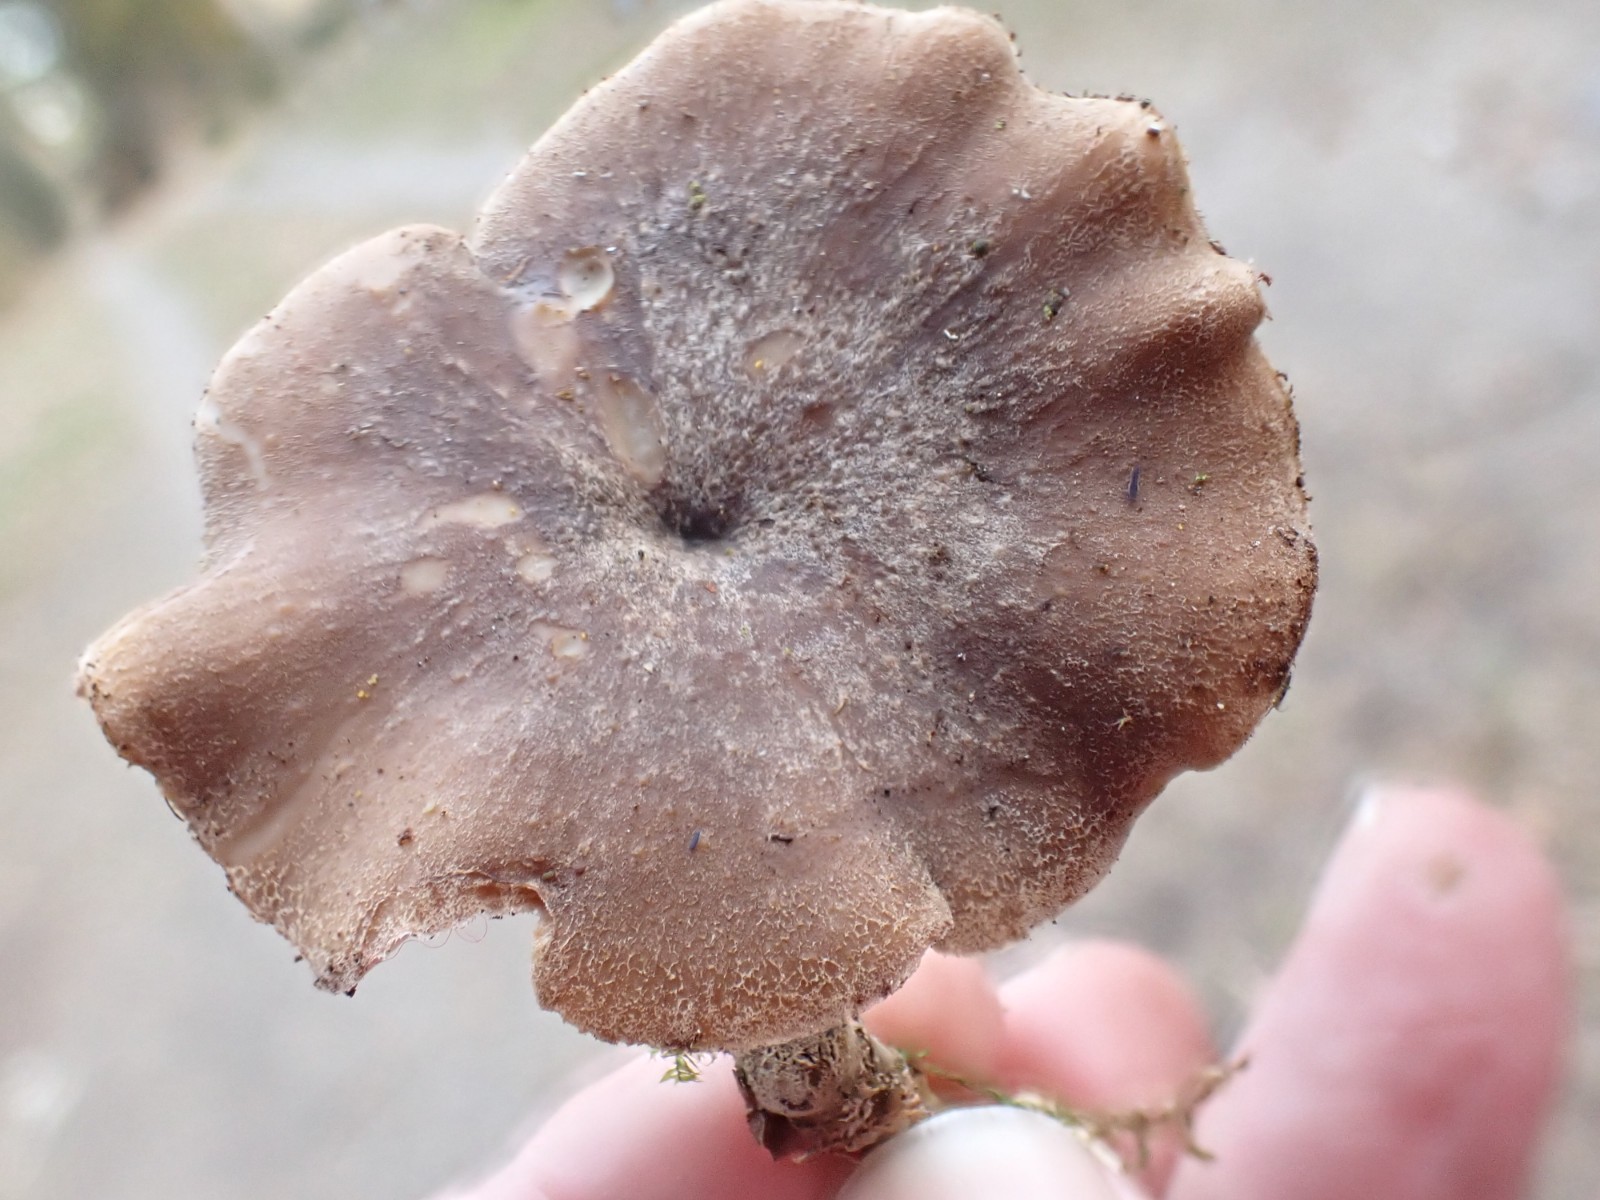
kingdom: Fungi
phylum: Basidiomycota
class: Agaricomycetes
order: Polyporales
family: Polyporaceae
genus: Lentinus
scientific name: Lentinus brumalis
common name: vinter-stilkporesvamp
